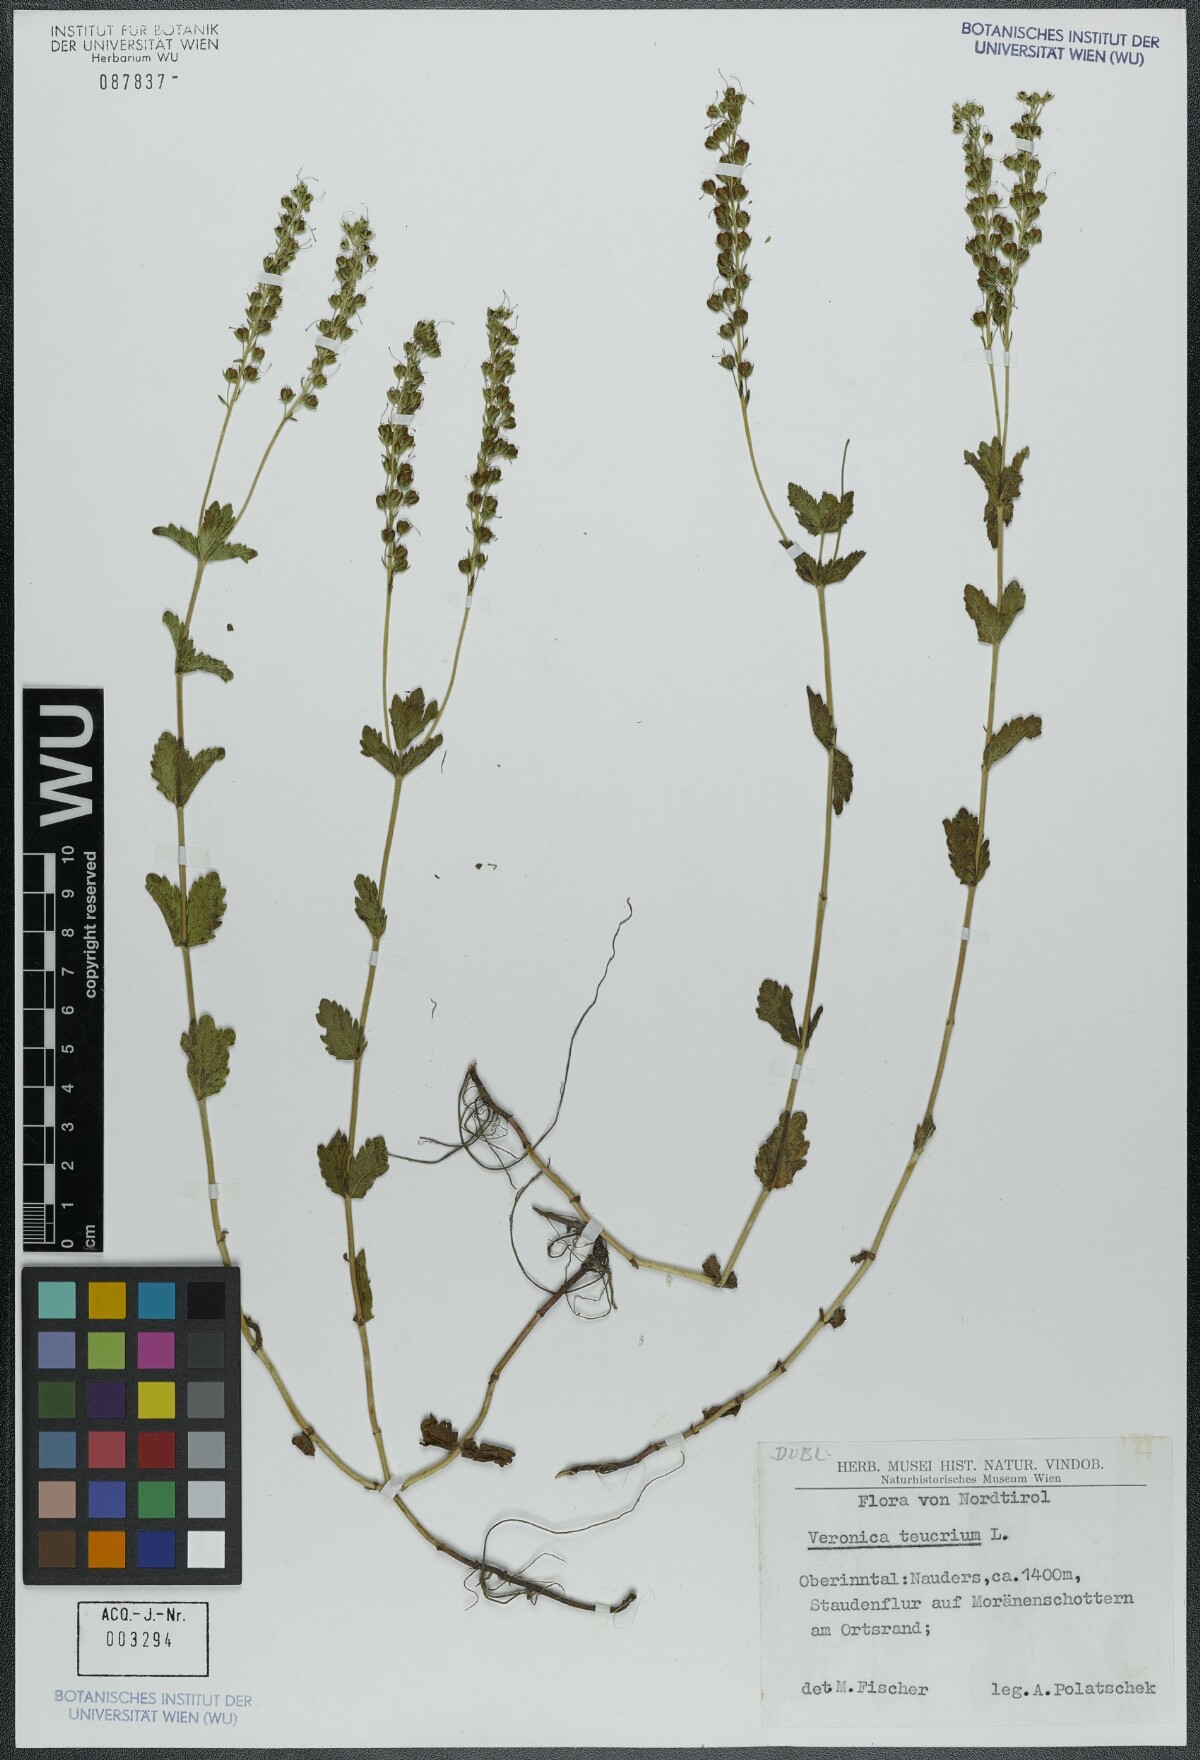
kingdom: Plantae
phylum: Tracheophyta
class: Magnoliopsida
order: Lamiales
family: Plantaginaceae
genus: Veronica
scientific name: Veronica teucrium
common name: Large speedwell
